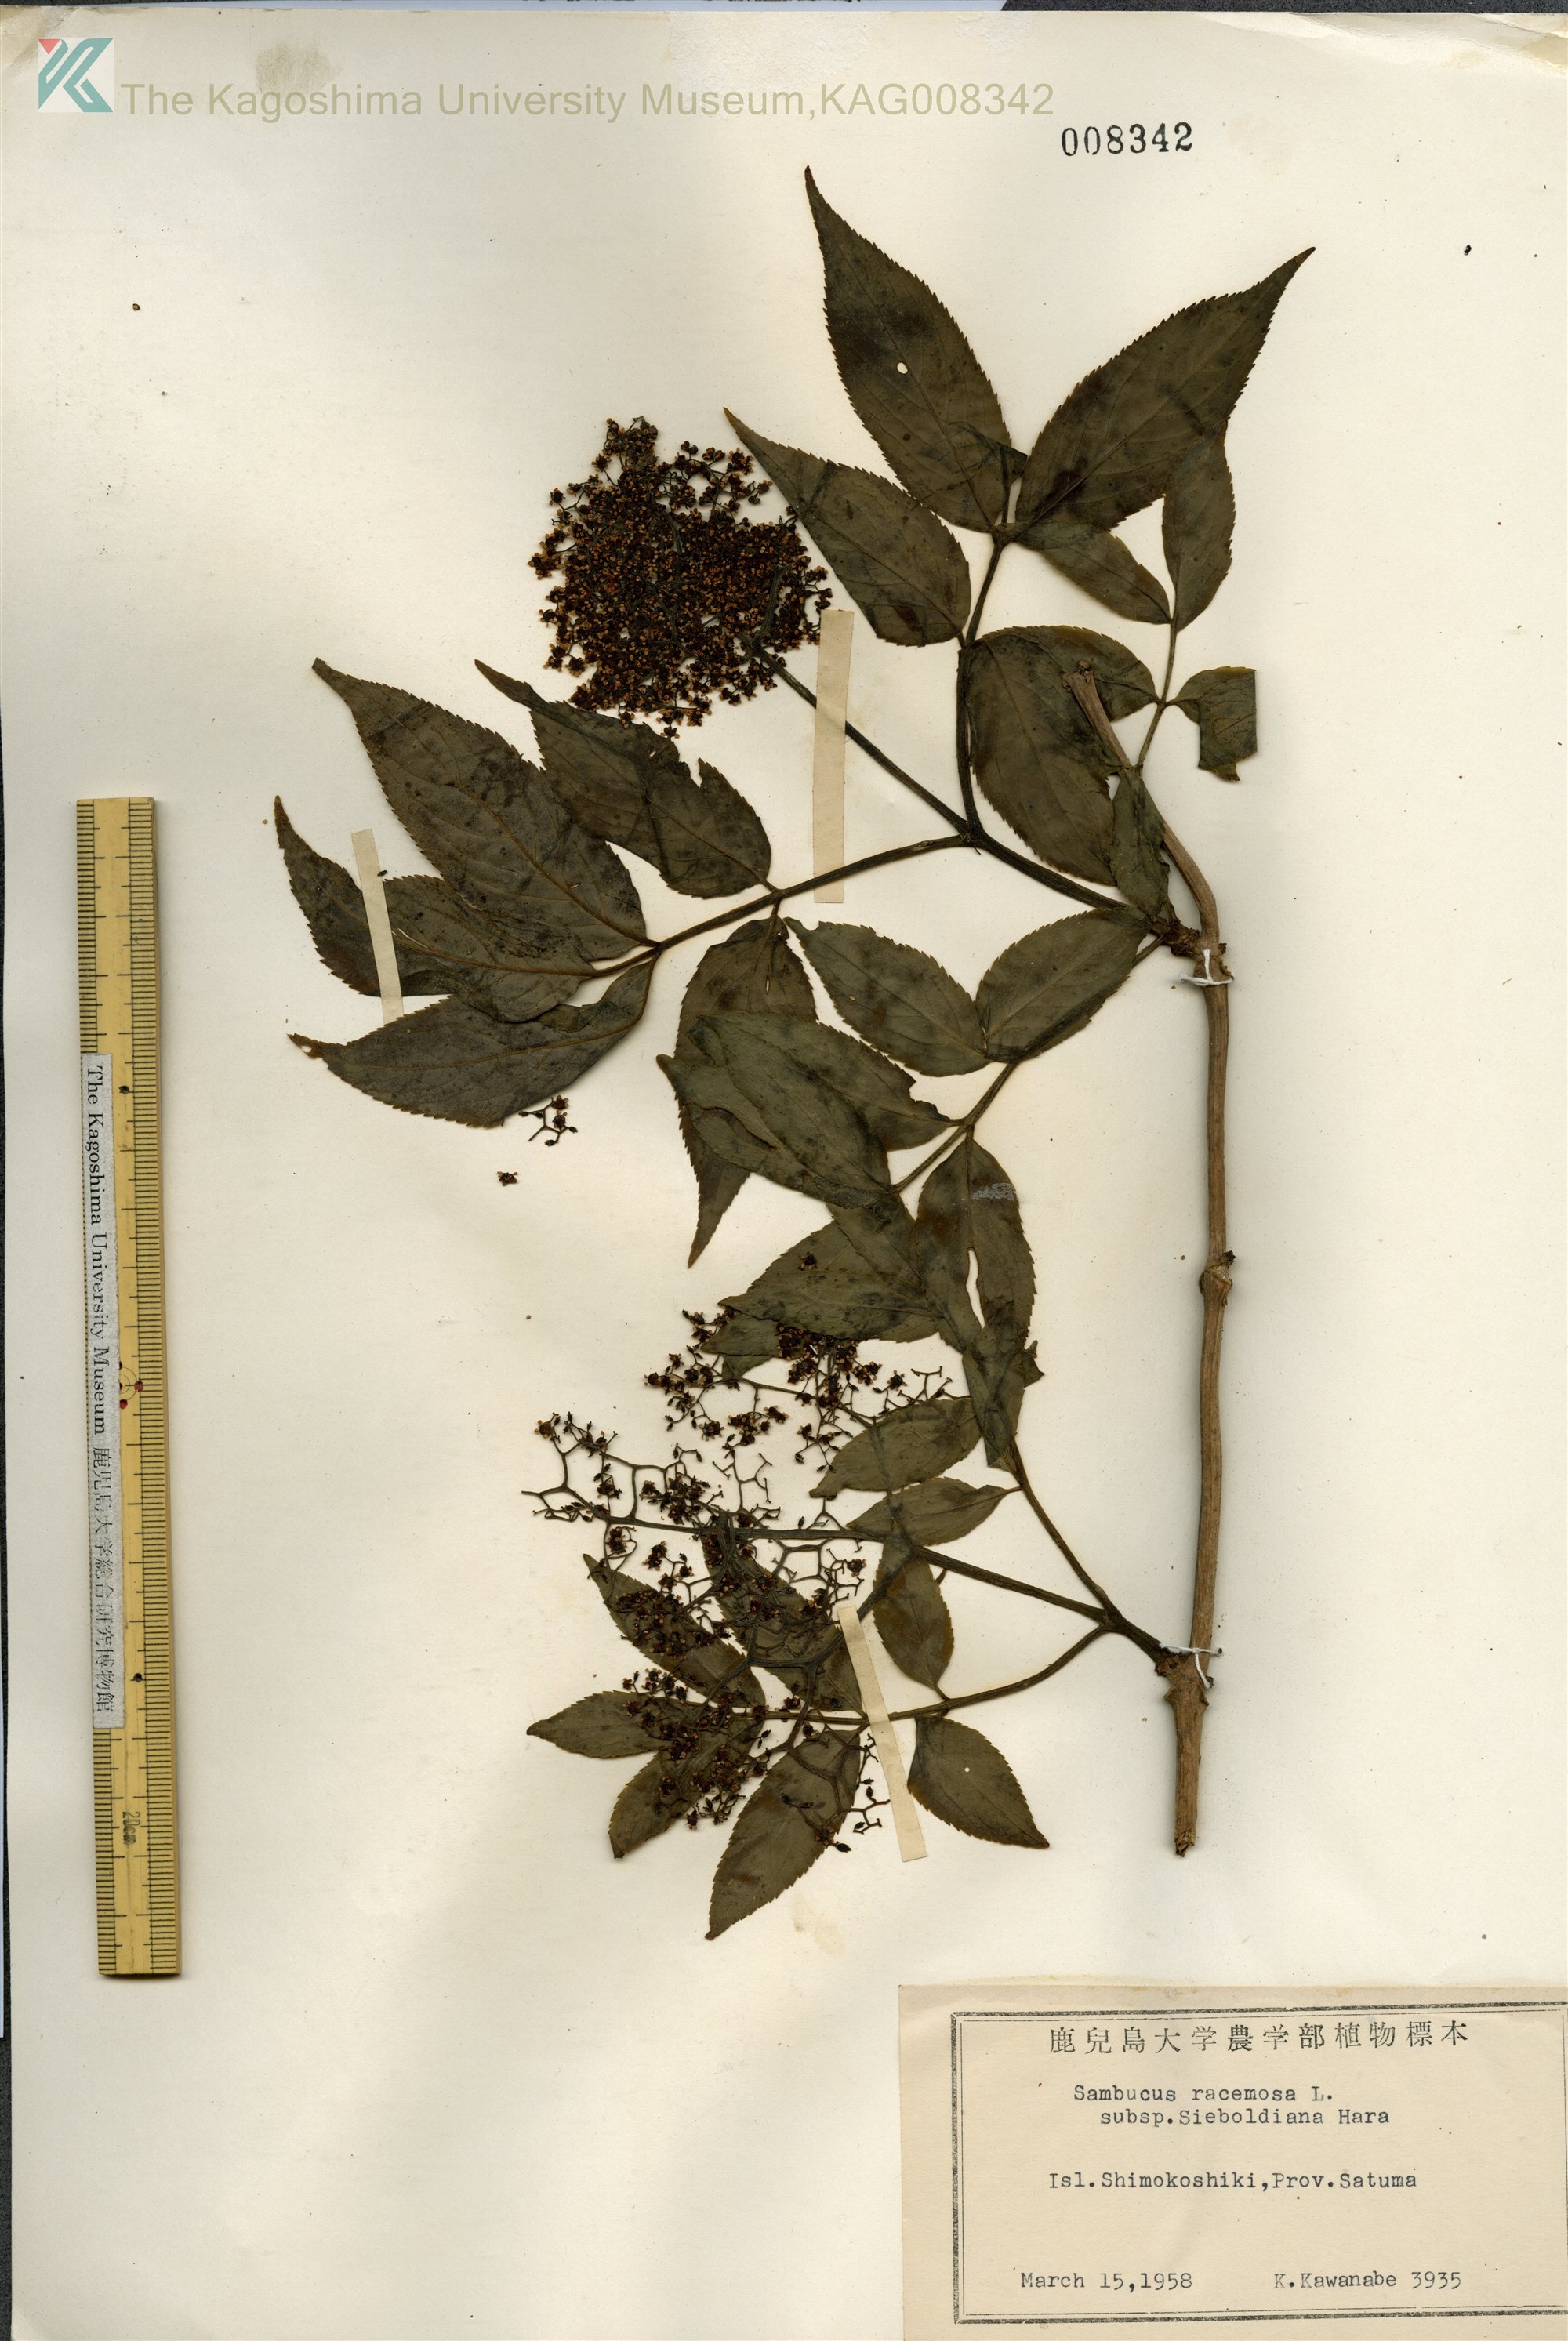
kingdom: Plantae
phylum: Tracheophyta
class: Magnoliopsida
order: Dipsacales
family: Viburnaceae
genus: Sambucus
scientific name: Sambucus sieboldiana
